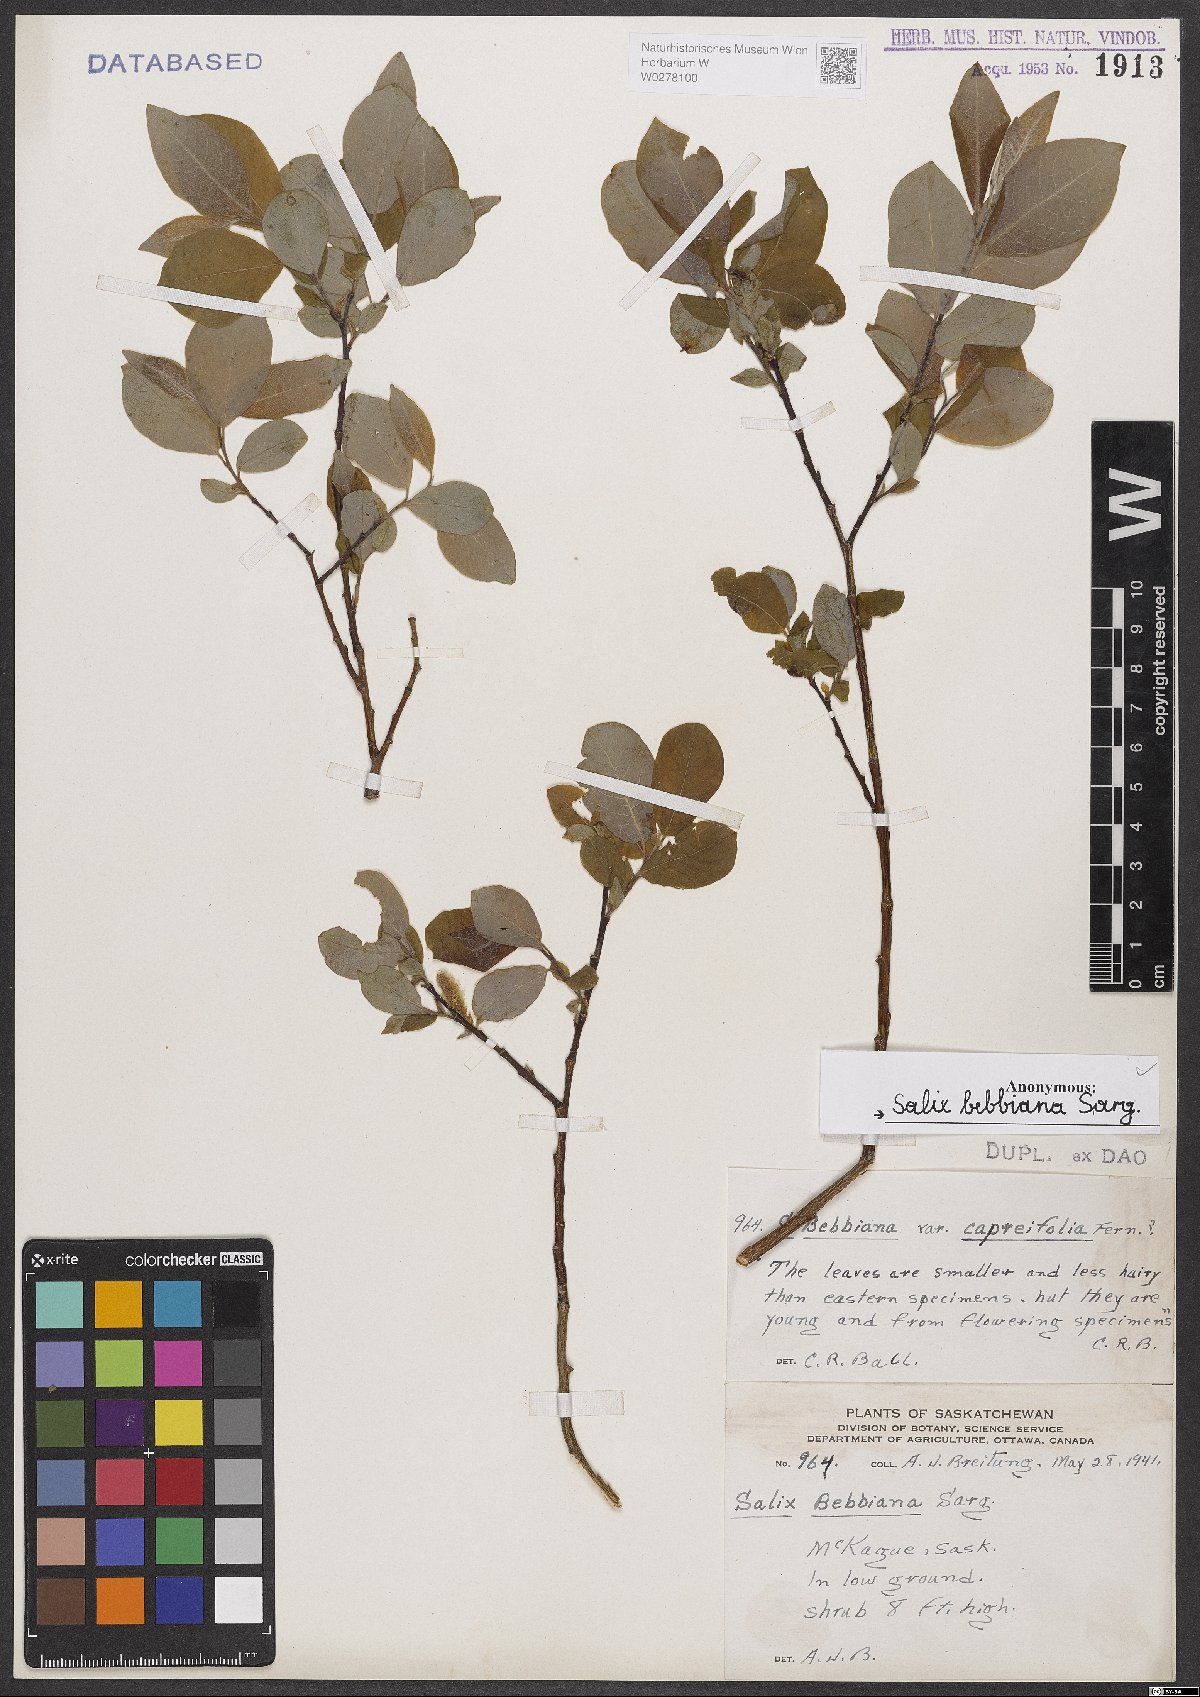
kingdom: Plantae
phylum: Tracheophyta
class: Magnoliopsida
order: Malpighiales
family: Salicaceae
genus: Salix
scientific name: Salix bebbiana
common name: Bebb's willow
